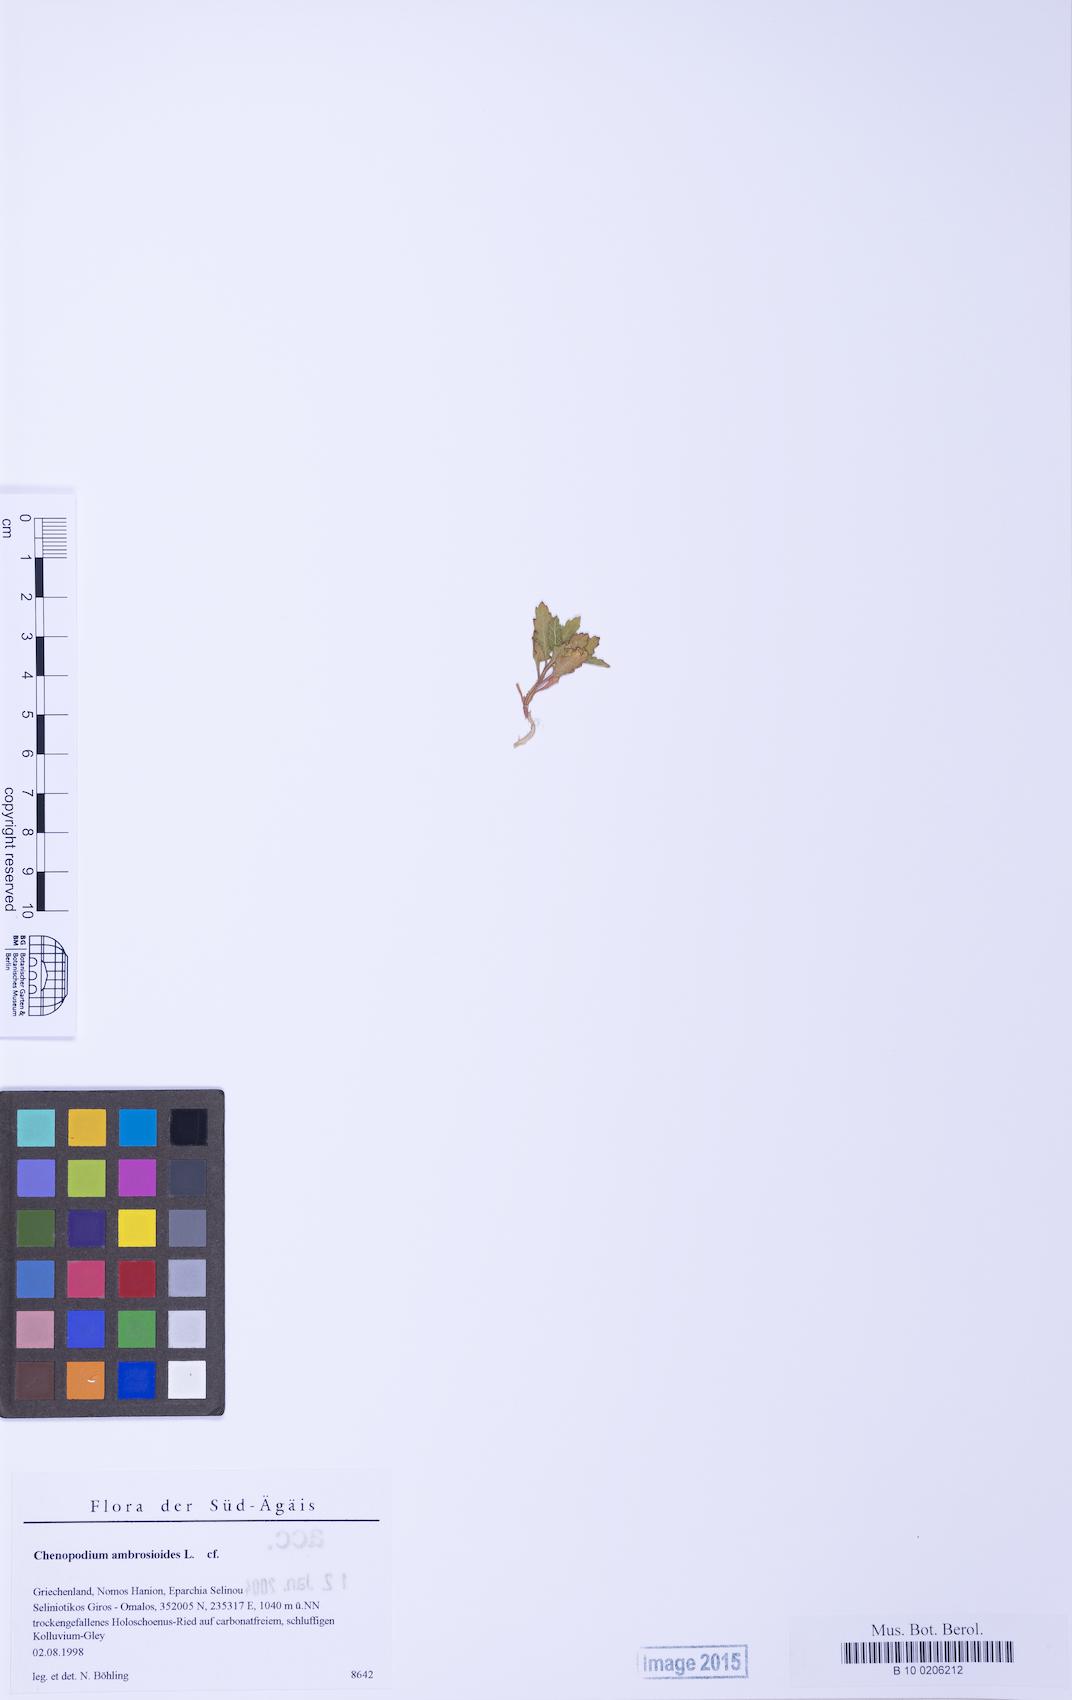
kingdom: Plantae
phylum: Tracheophyta
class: Magnoliopsida
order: Caryophyllales
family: Amaranthaceae
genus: Dysphania
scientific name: Dysphania ambrosioides
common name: Wormseed
